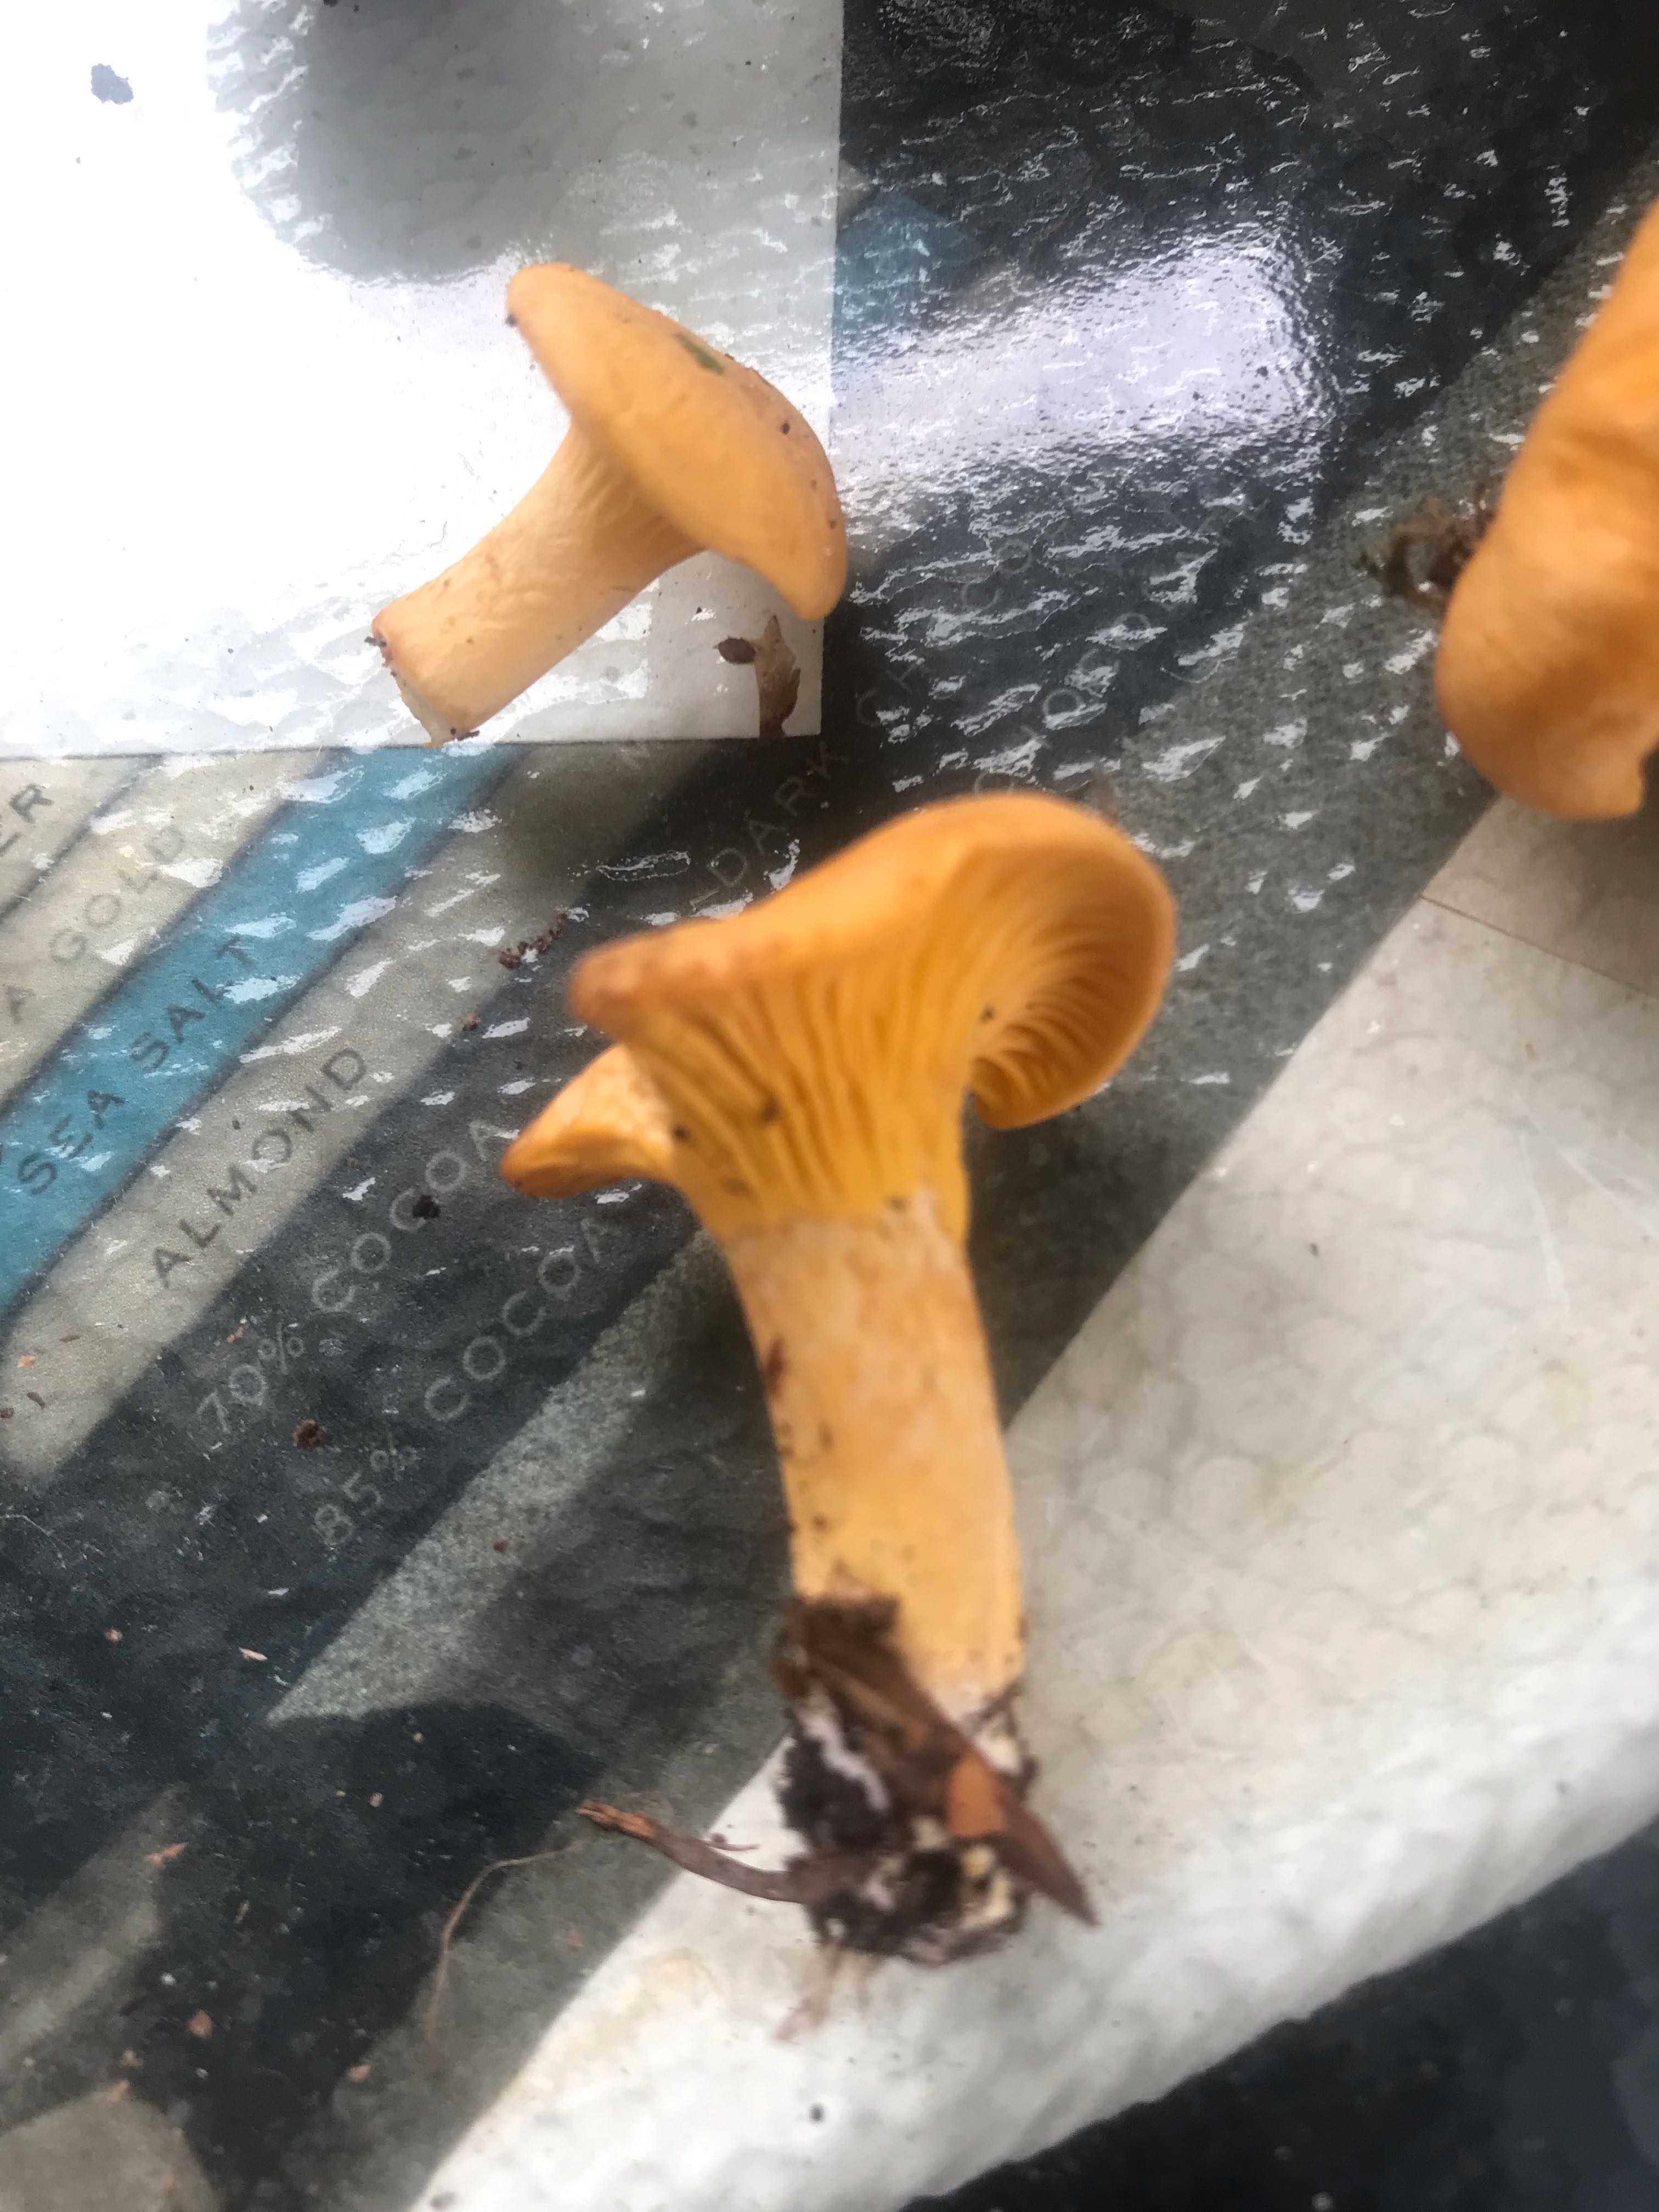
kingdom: Fungi
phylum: Basidiomycota
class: Agaricomycetes
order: Cantharellales
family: Hydnaceae
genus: Cantharellus
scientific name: Cantharellus cibarius
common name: almindelig kantarel
